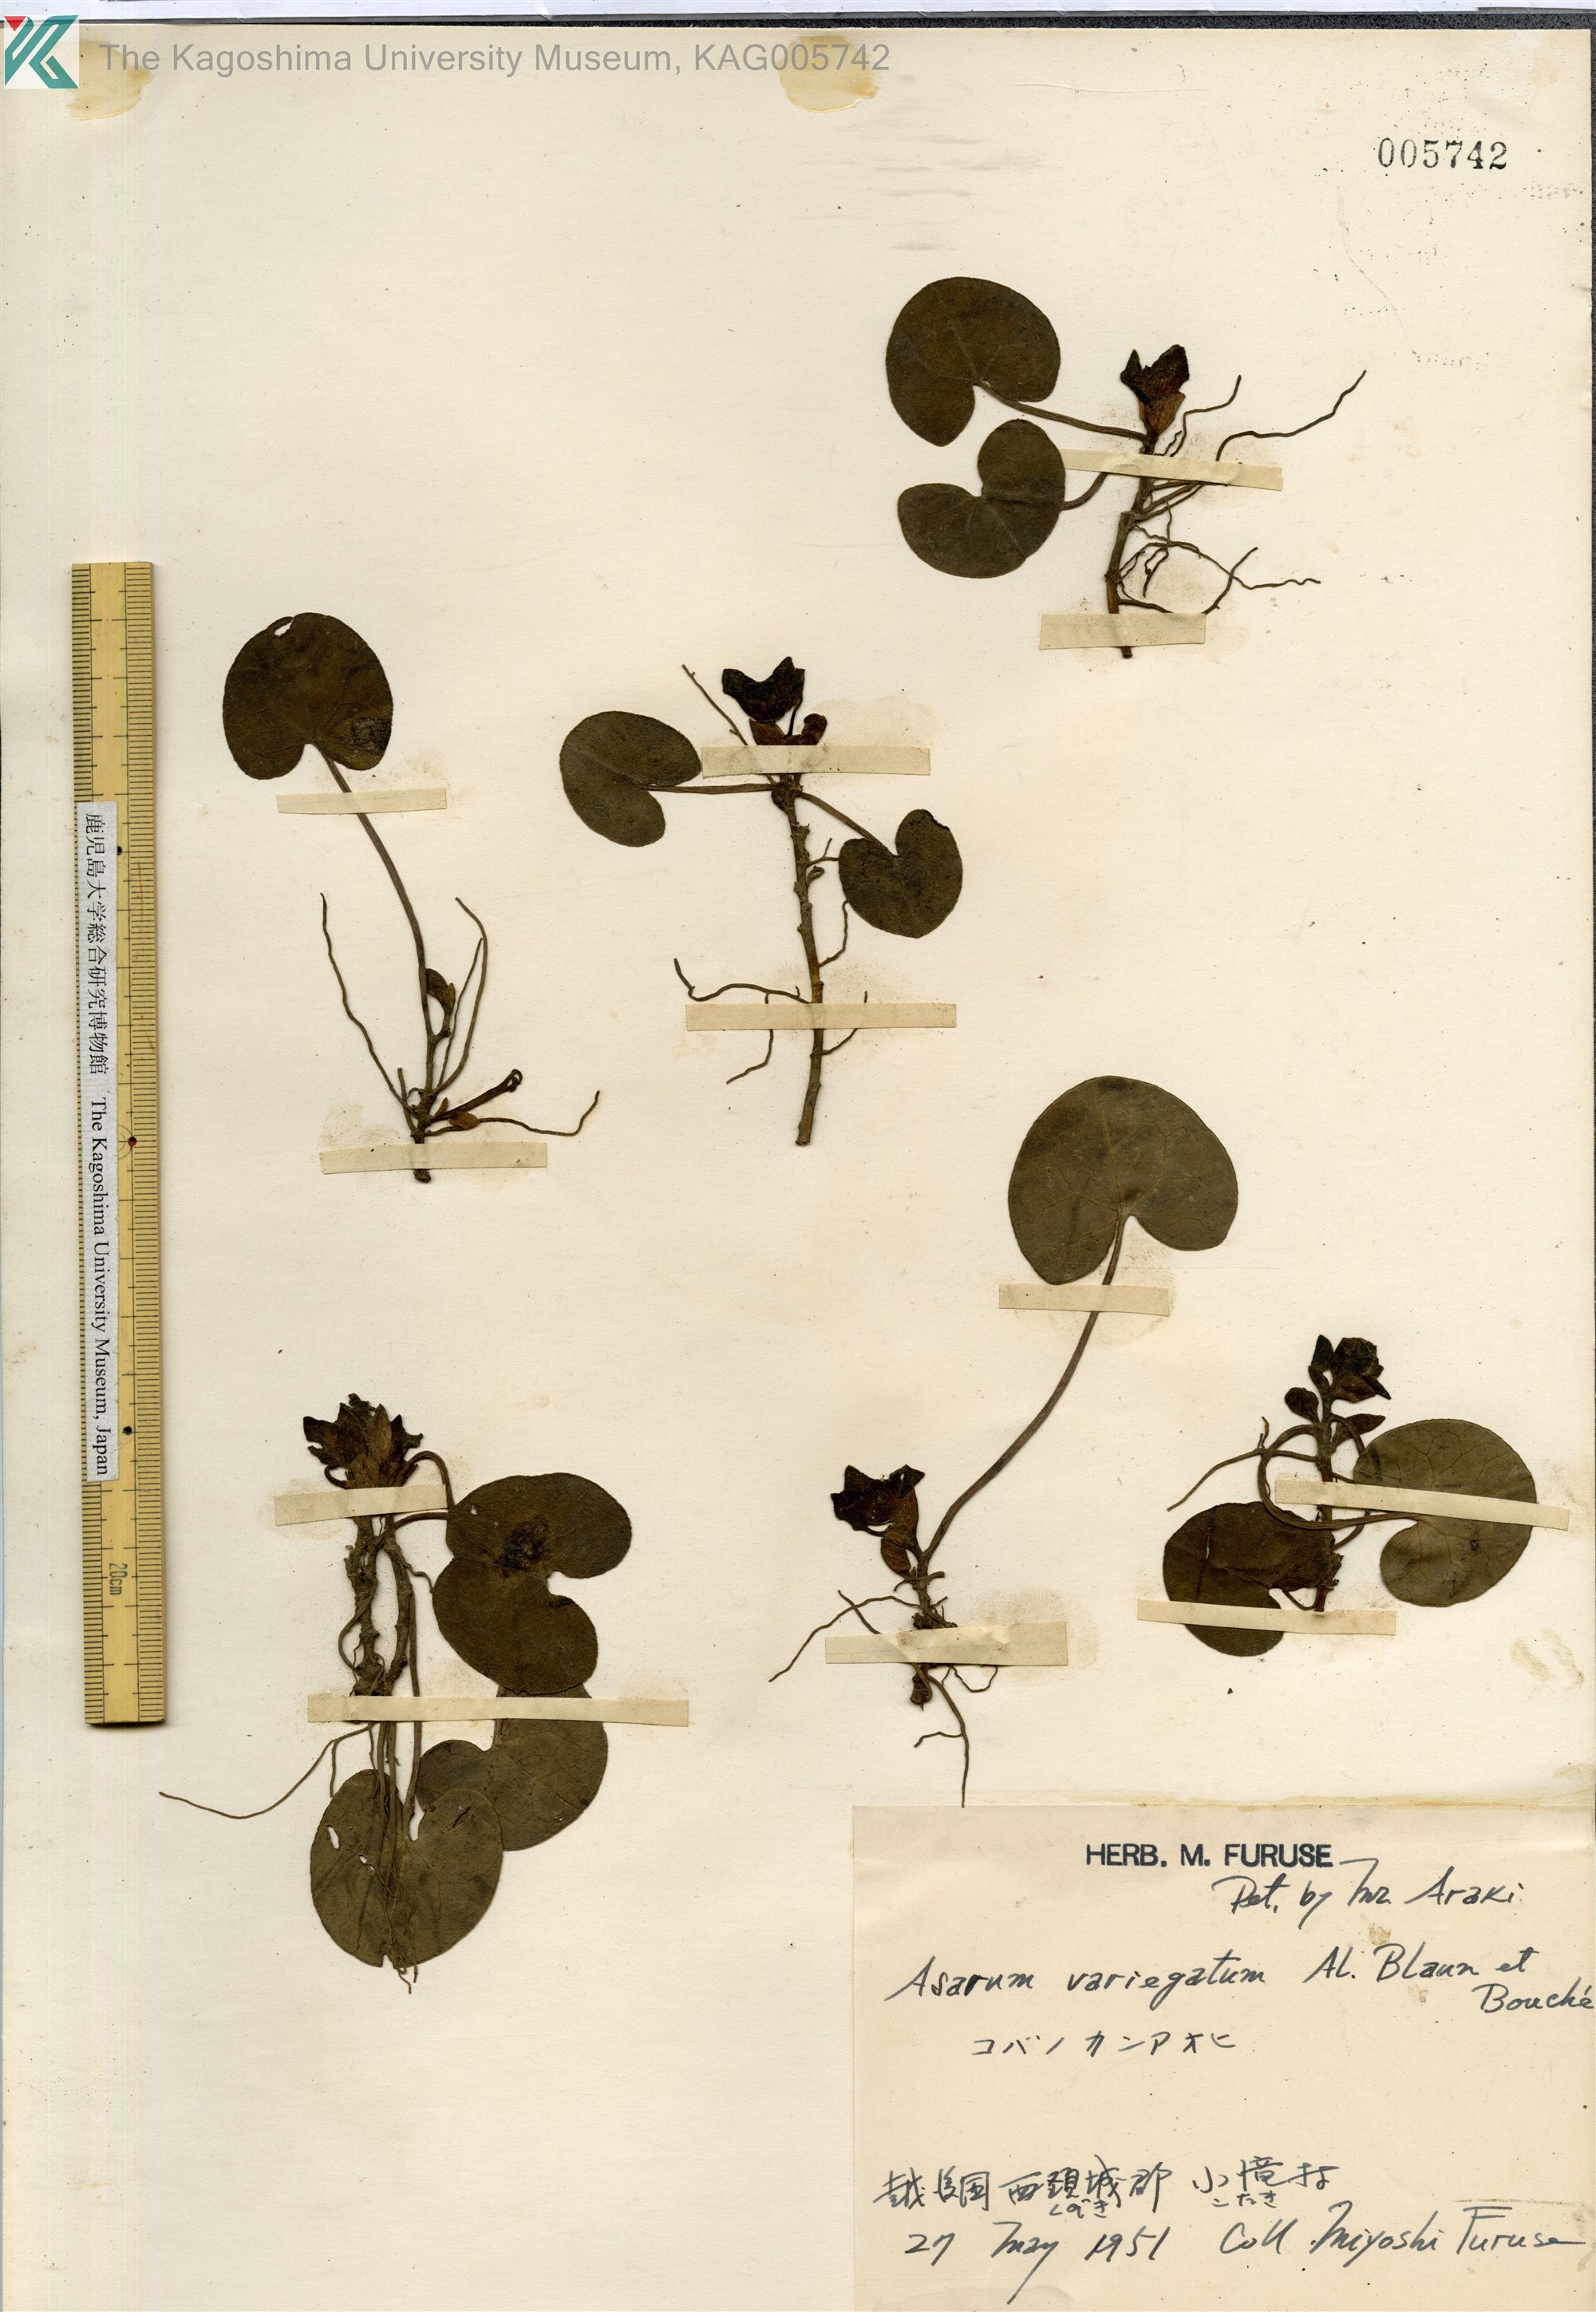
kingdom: Plantae
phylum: Tracheophyta
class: Magnoliopsida
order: Piperales
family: Aristolochiaceae
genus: Asarum
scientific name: Asarum variegatum
